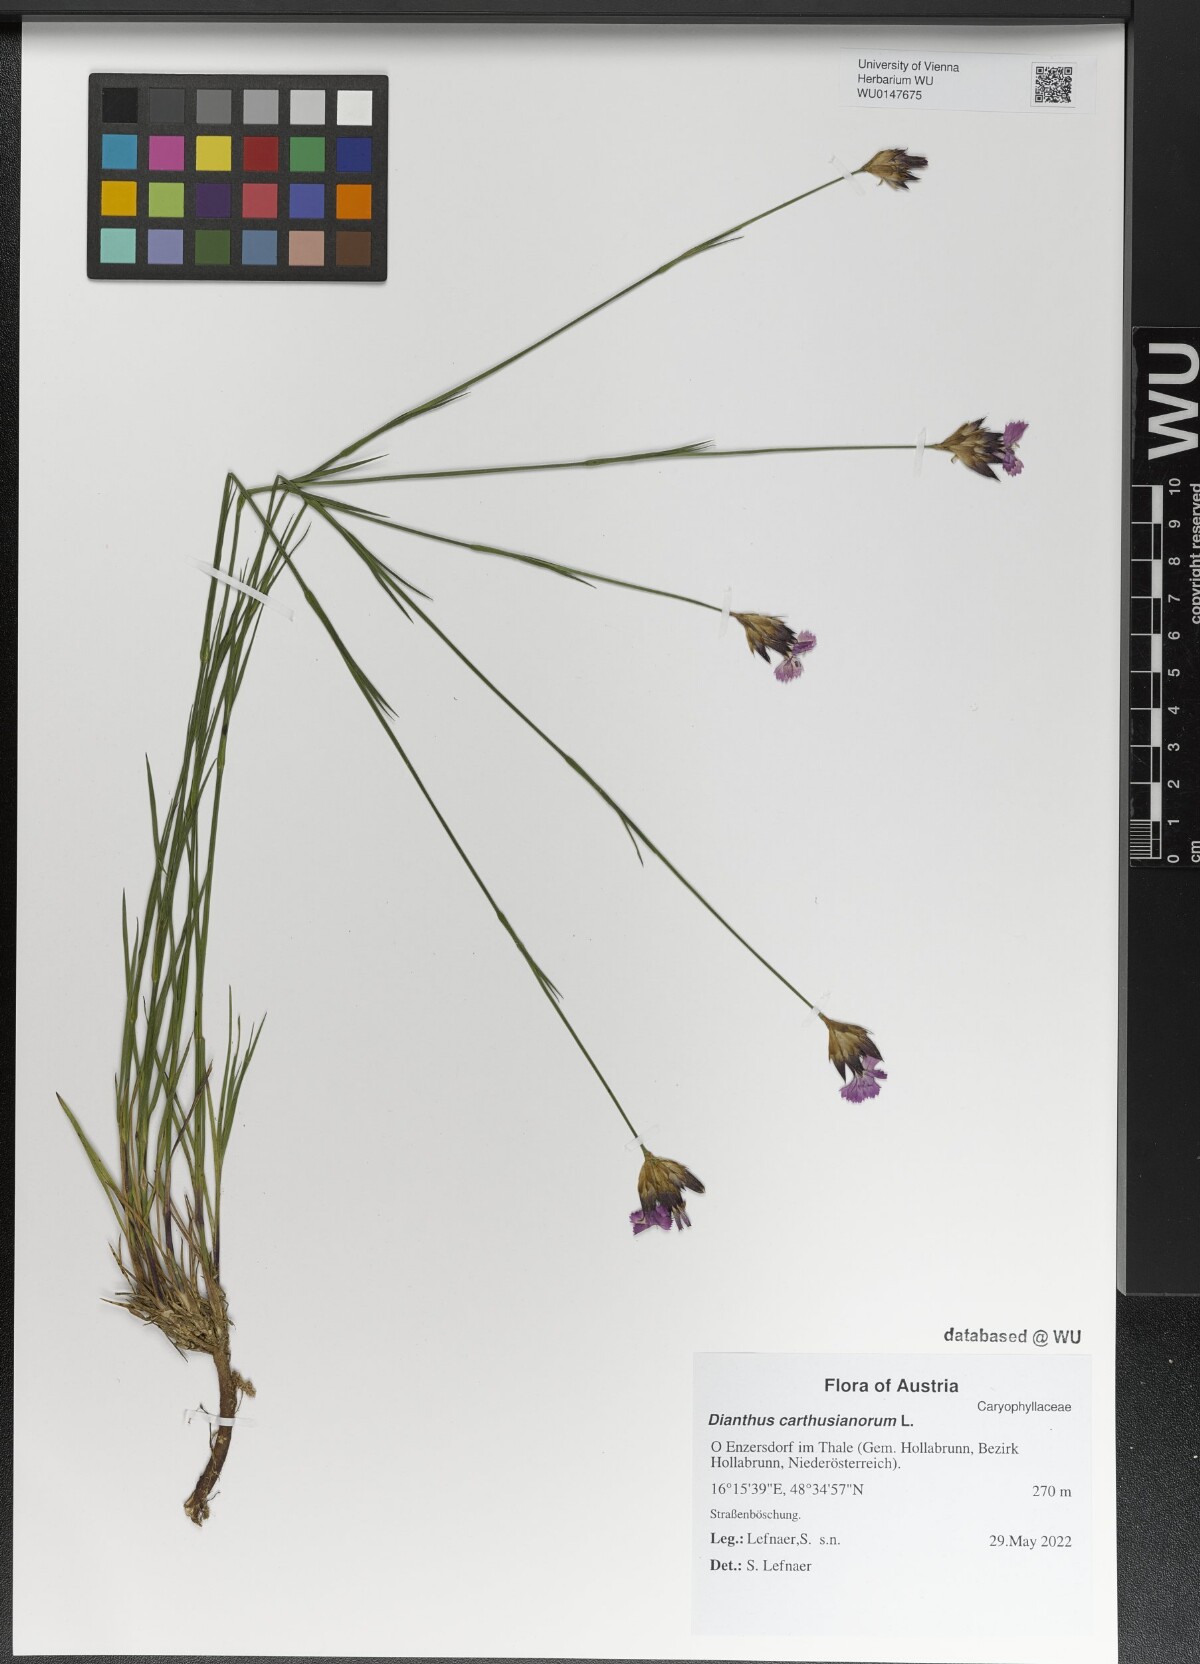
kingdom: Plantae
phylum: Tracheophyta
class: Magnoliopsida
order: Caryophyllales
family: Caryophyllaceae
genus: Dianthus
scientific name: Dianthus carthusianorum
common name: Carthusian pink
